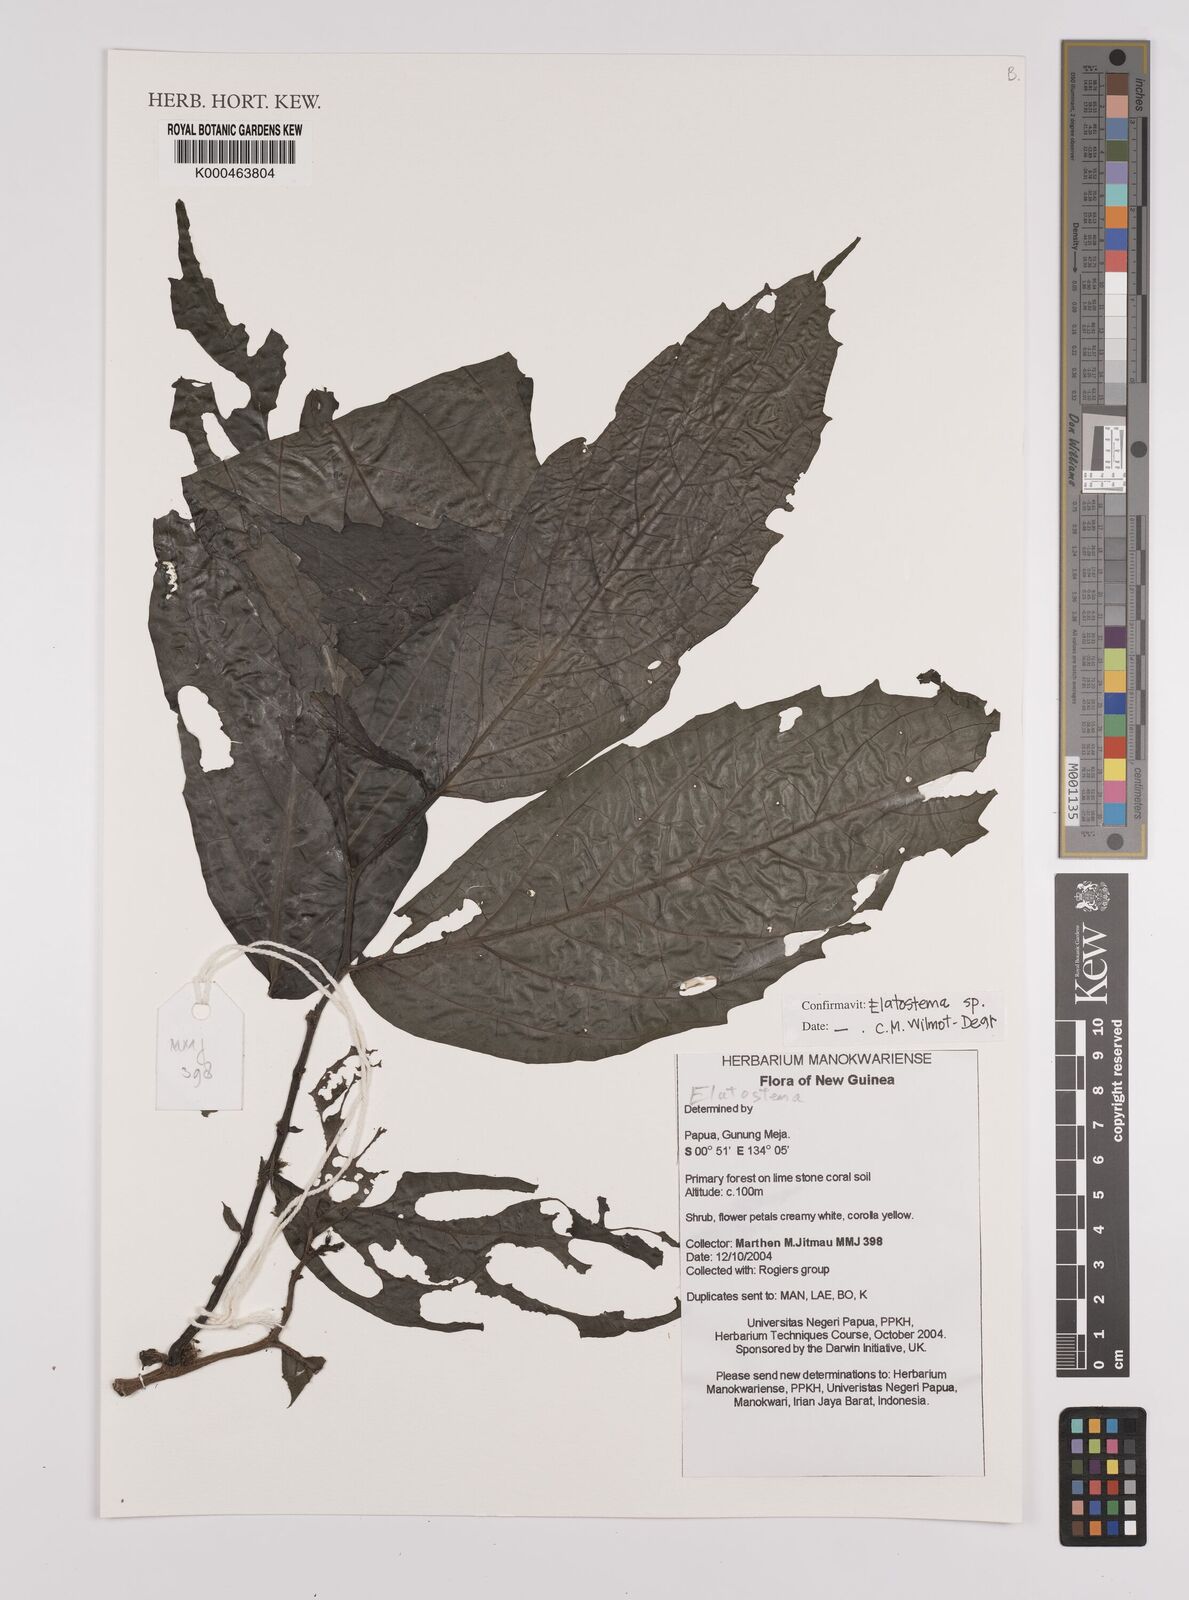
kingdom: Plantae
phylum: Tracheophyta
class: Magnoliopsida
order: Rosales
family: Urticaceae
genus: Elatostema
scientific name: Elatostema
